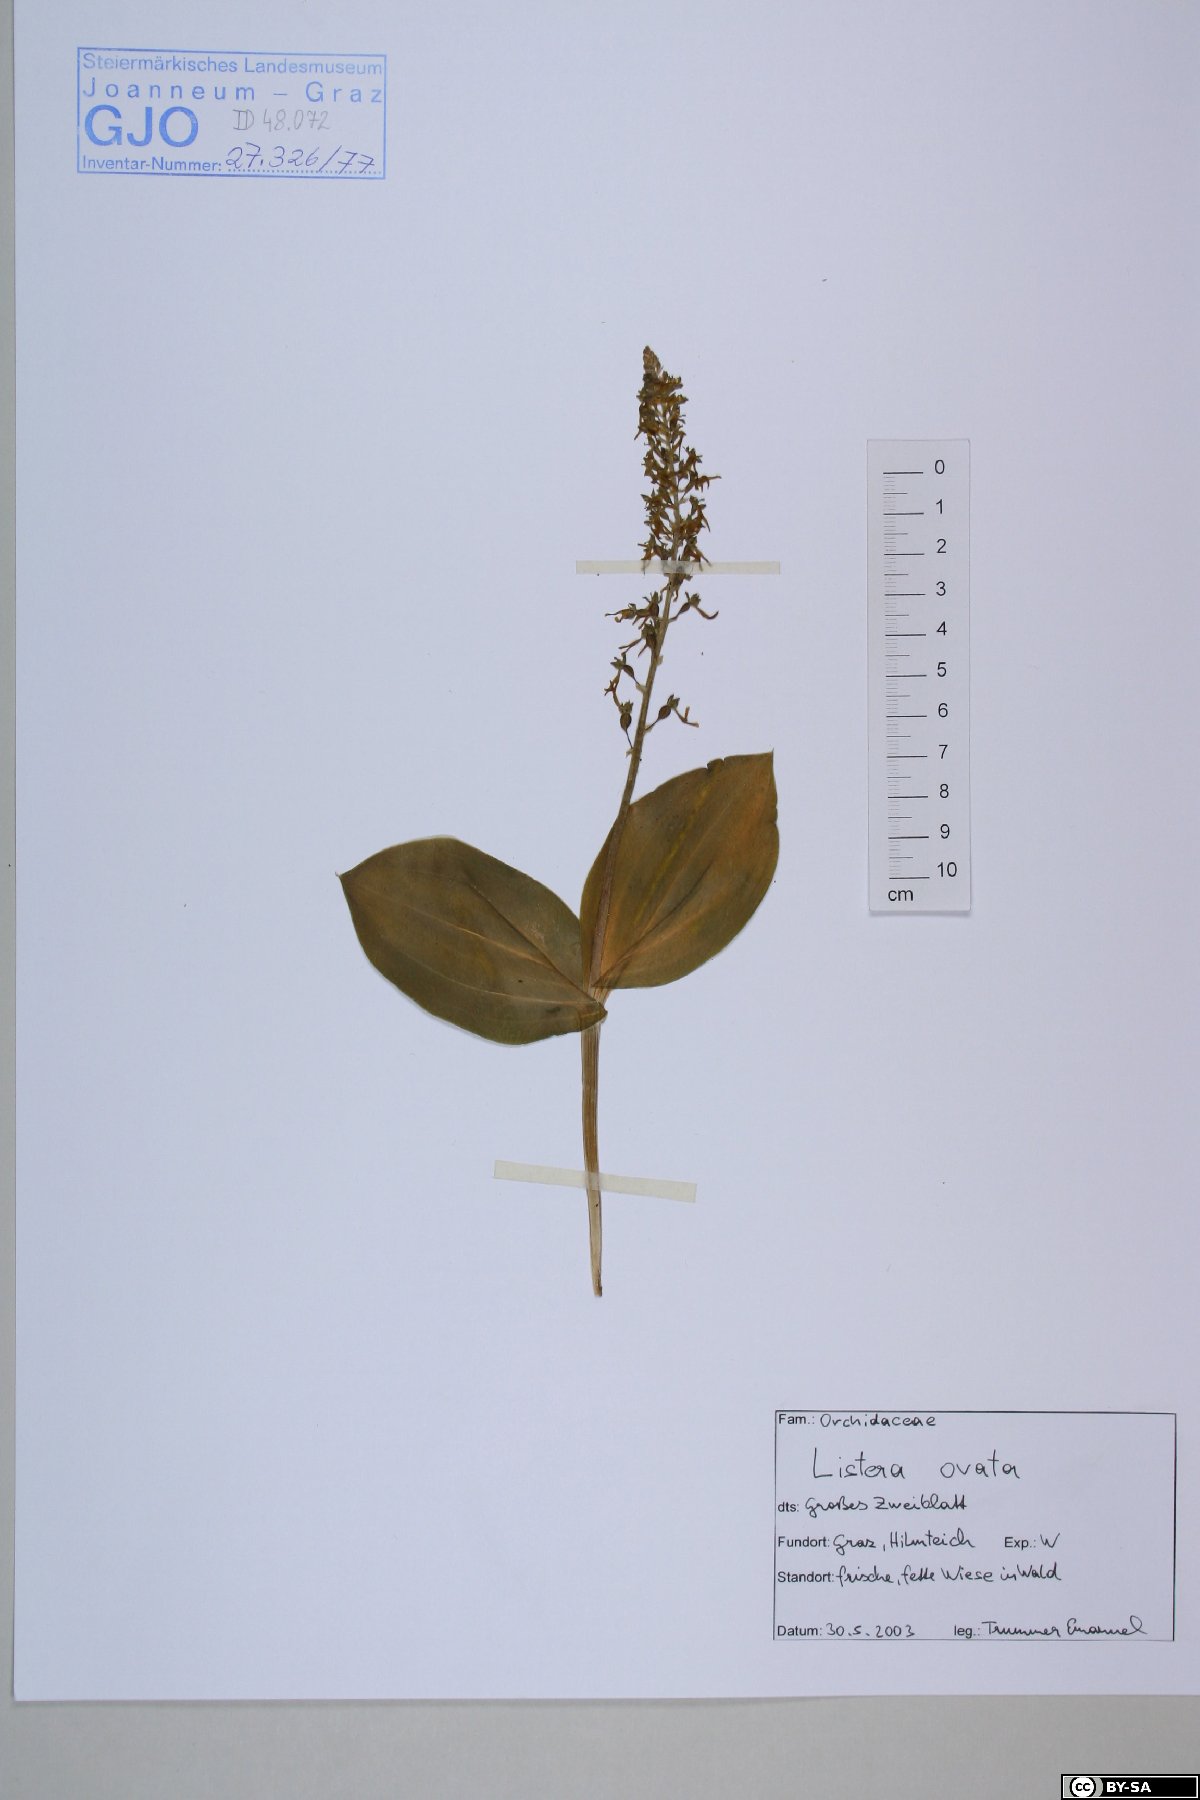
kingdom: Plantae
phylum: Tracheophyta
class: Liliopsida
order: Asparagales
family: Orchidaceae
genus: Neottia
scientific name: Neottia ovata
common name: Common twayblade
